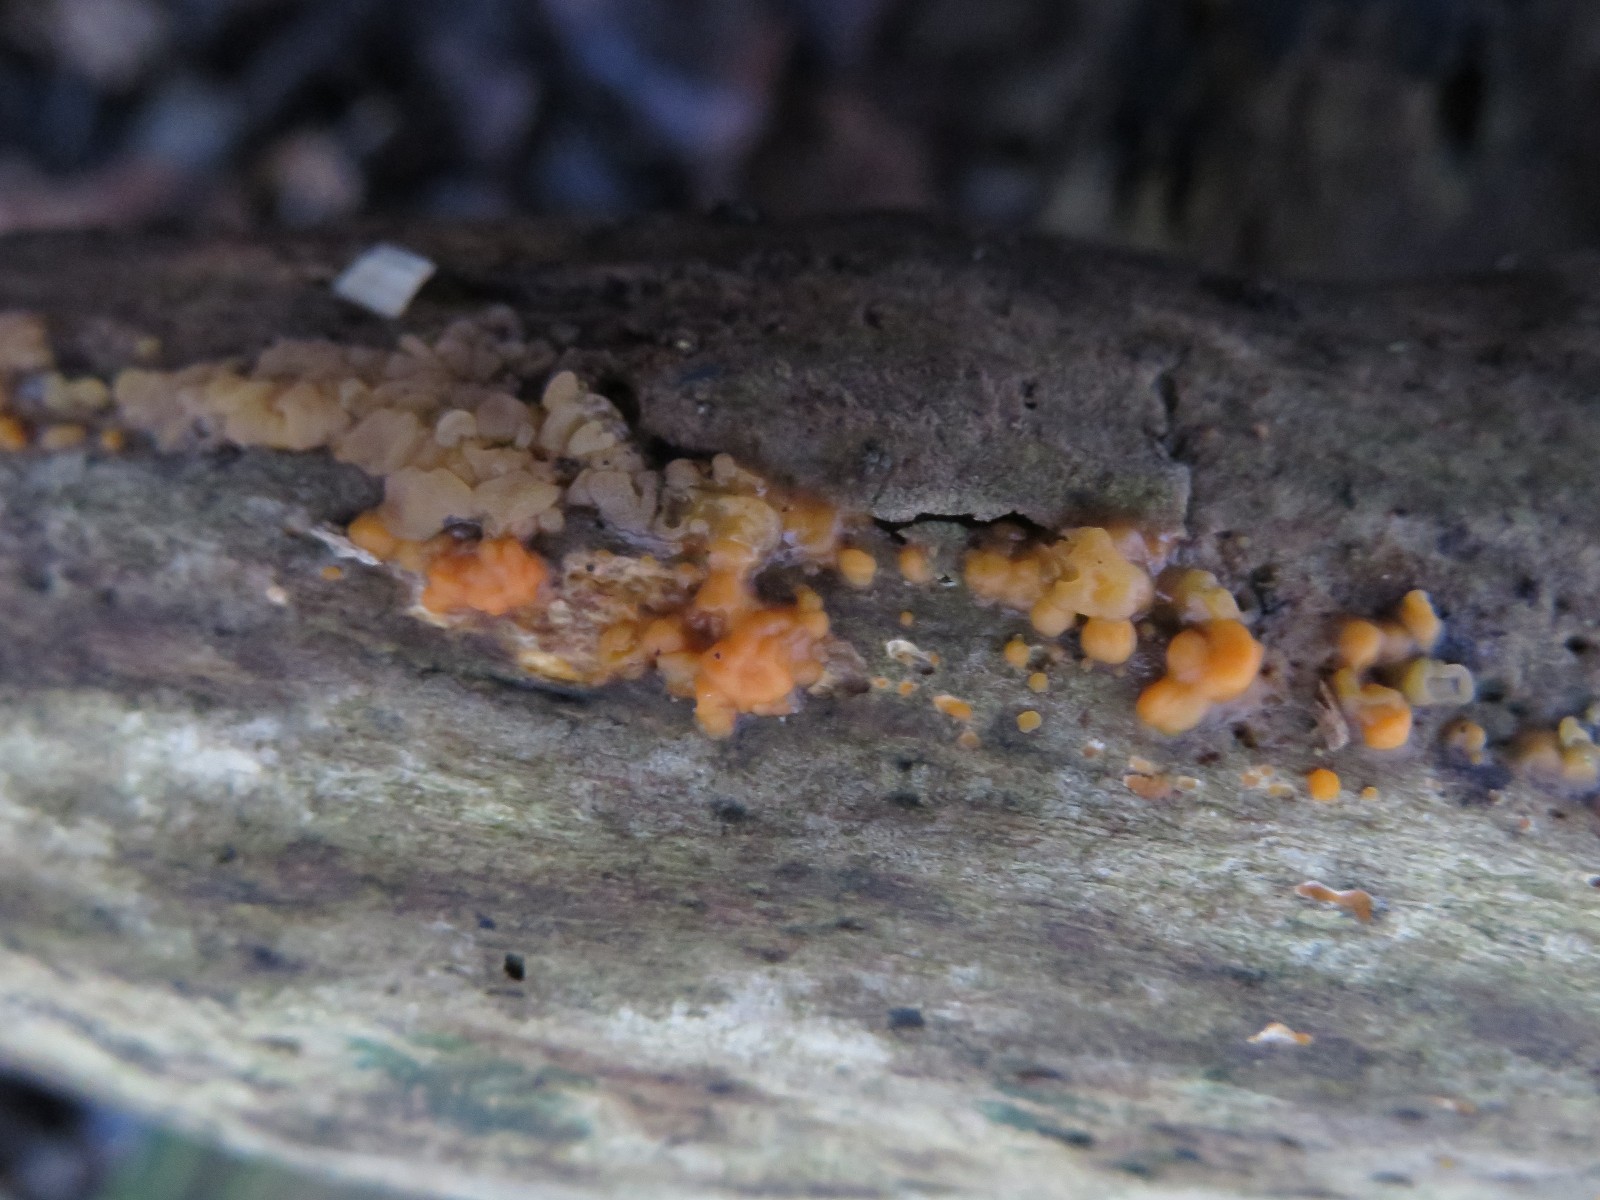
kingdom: Fungi
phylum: Basidiomycota
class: Dacrymycetes
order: Dacrymycetales
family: Dacrymycetaceae
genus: Dacrymyces
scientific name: Dacrymyces stillatus
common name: almindelig tåresvamp
